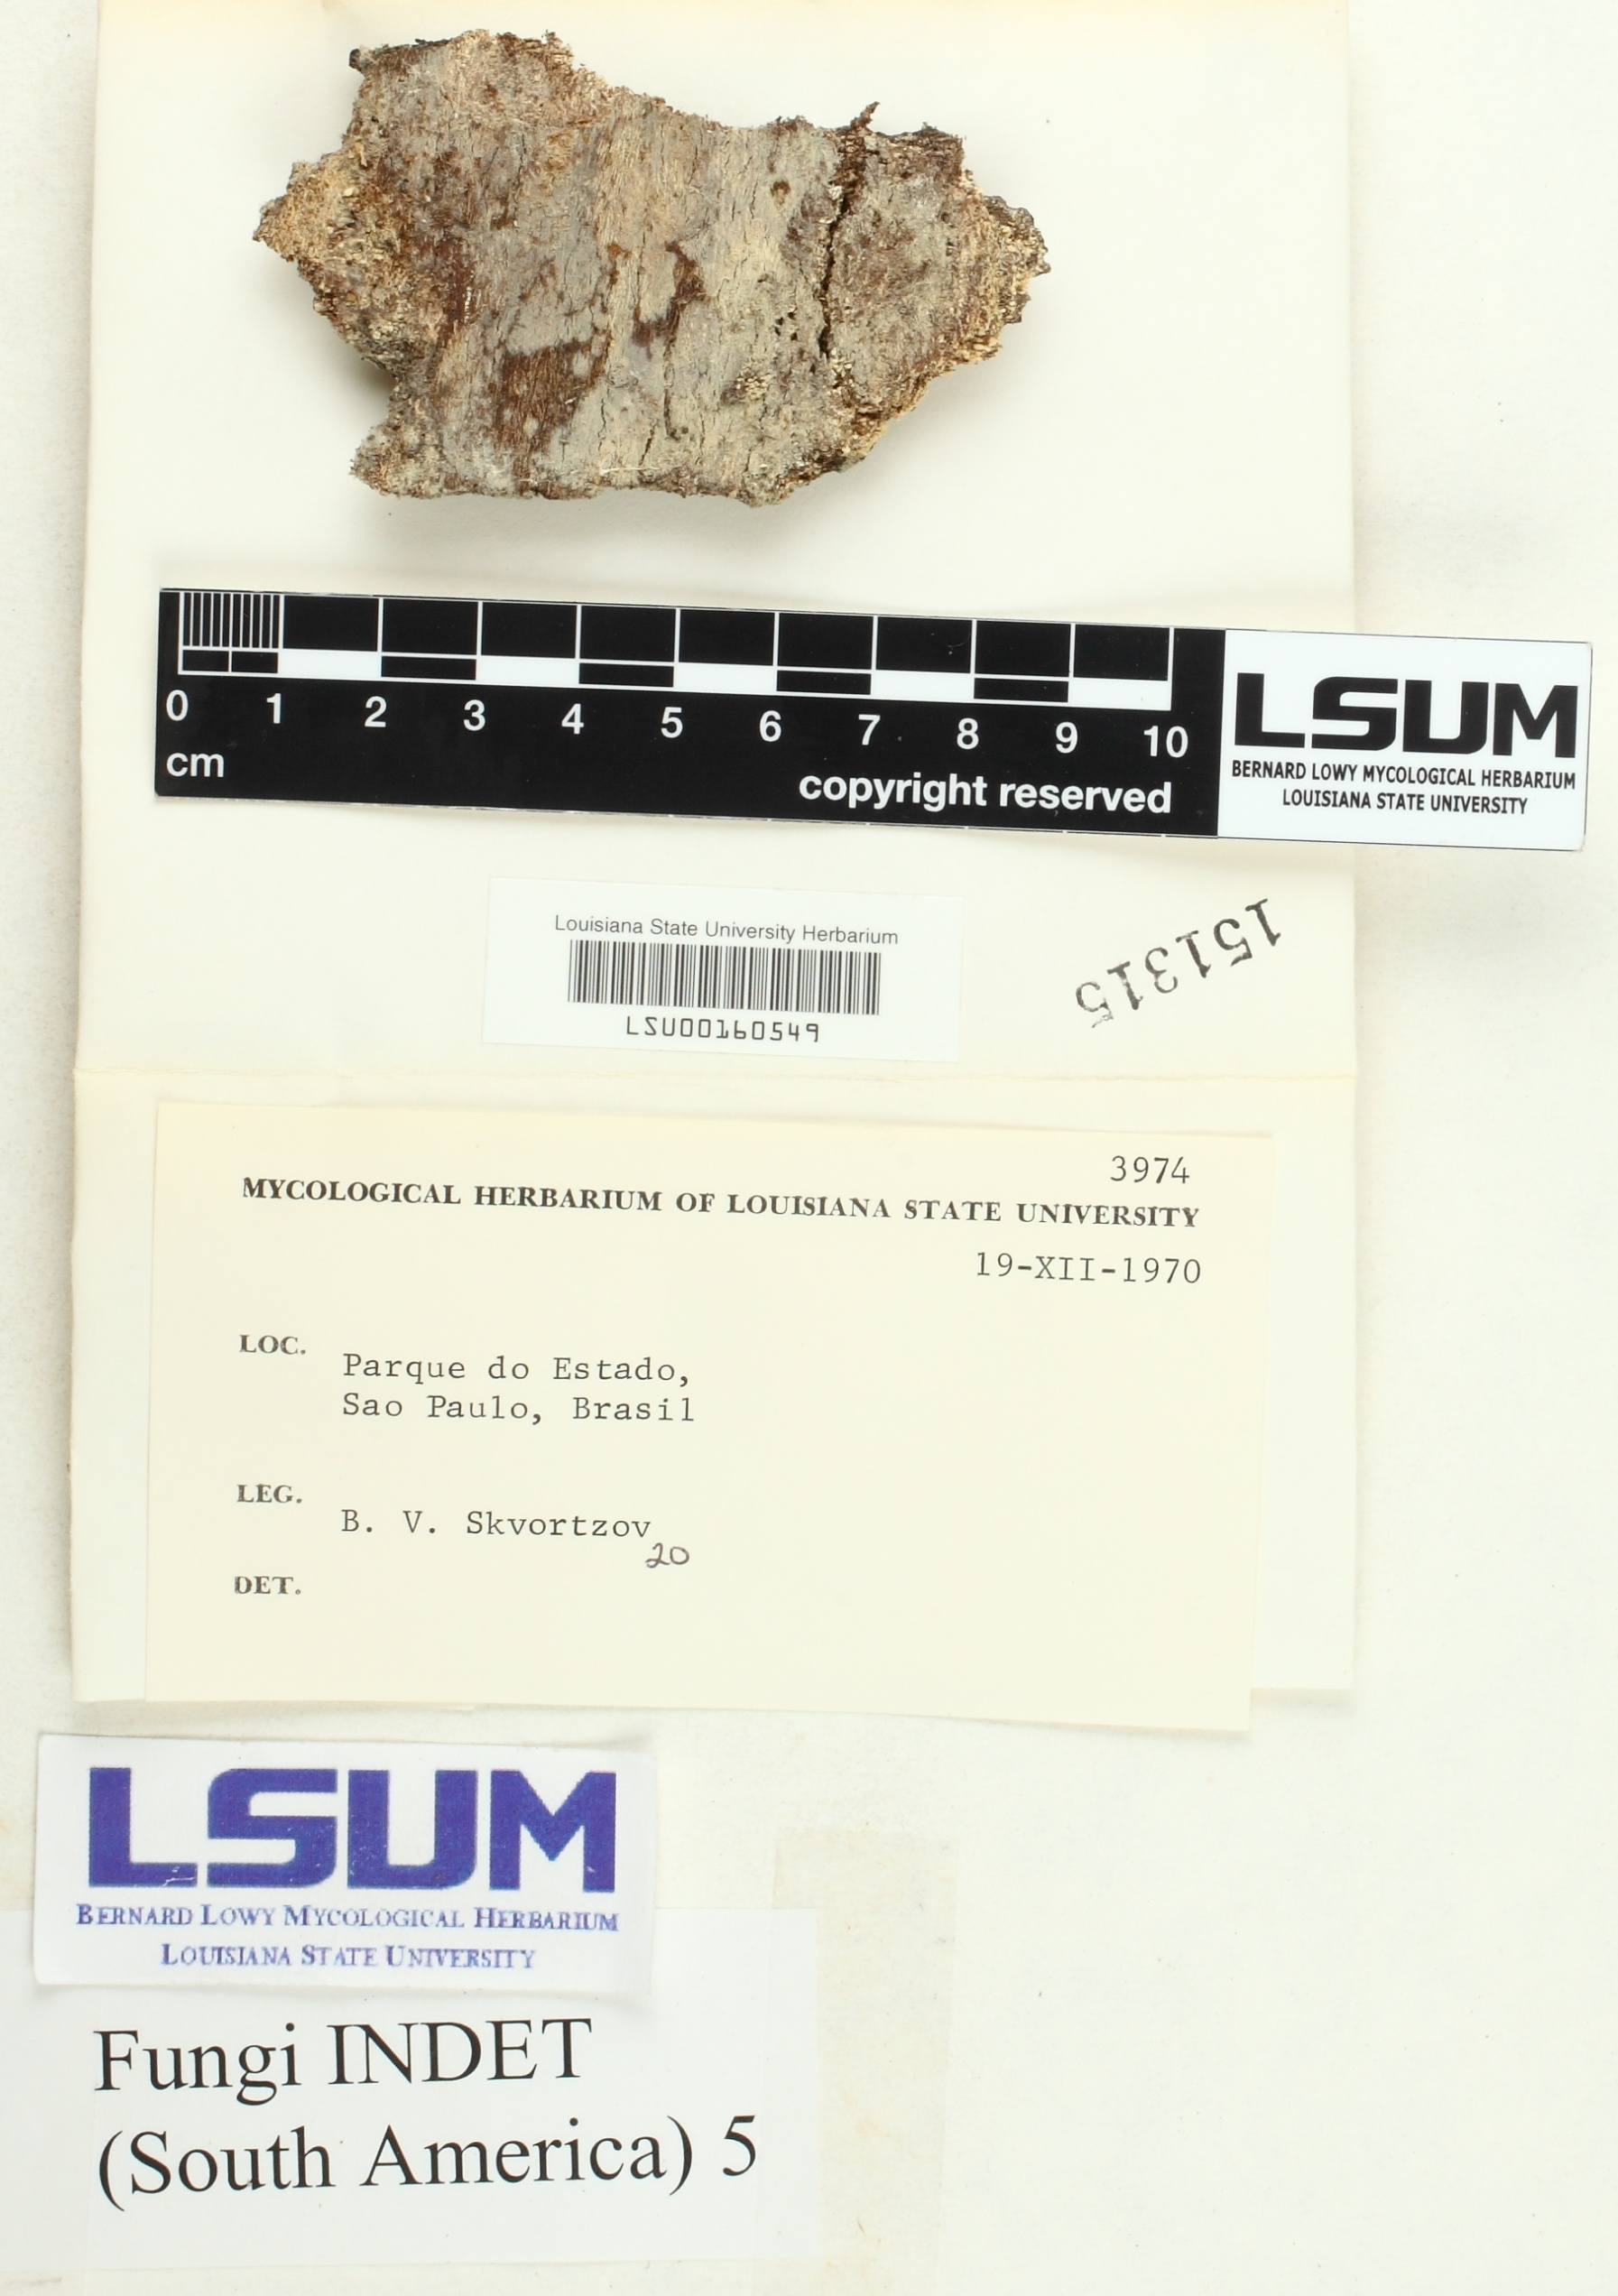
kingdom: Fungi
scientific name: Fungi
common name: Fungi
